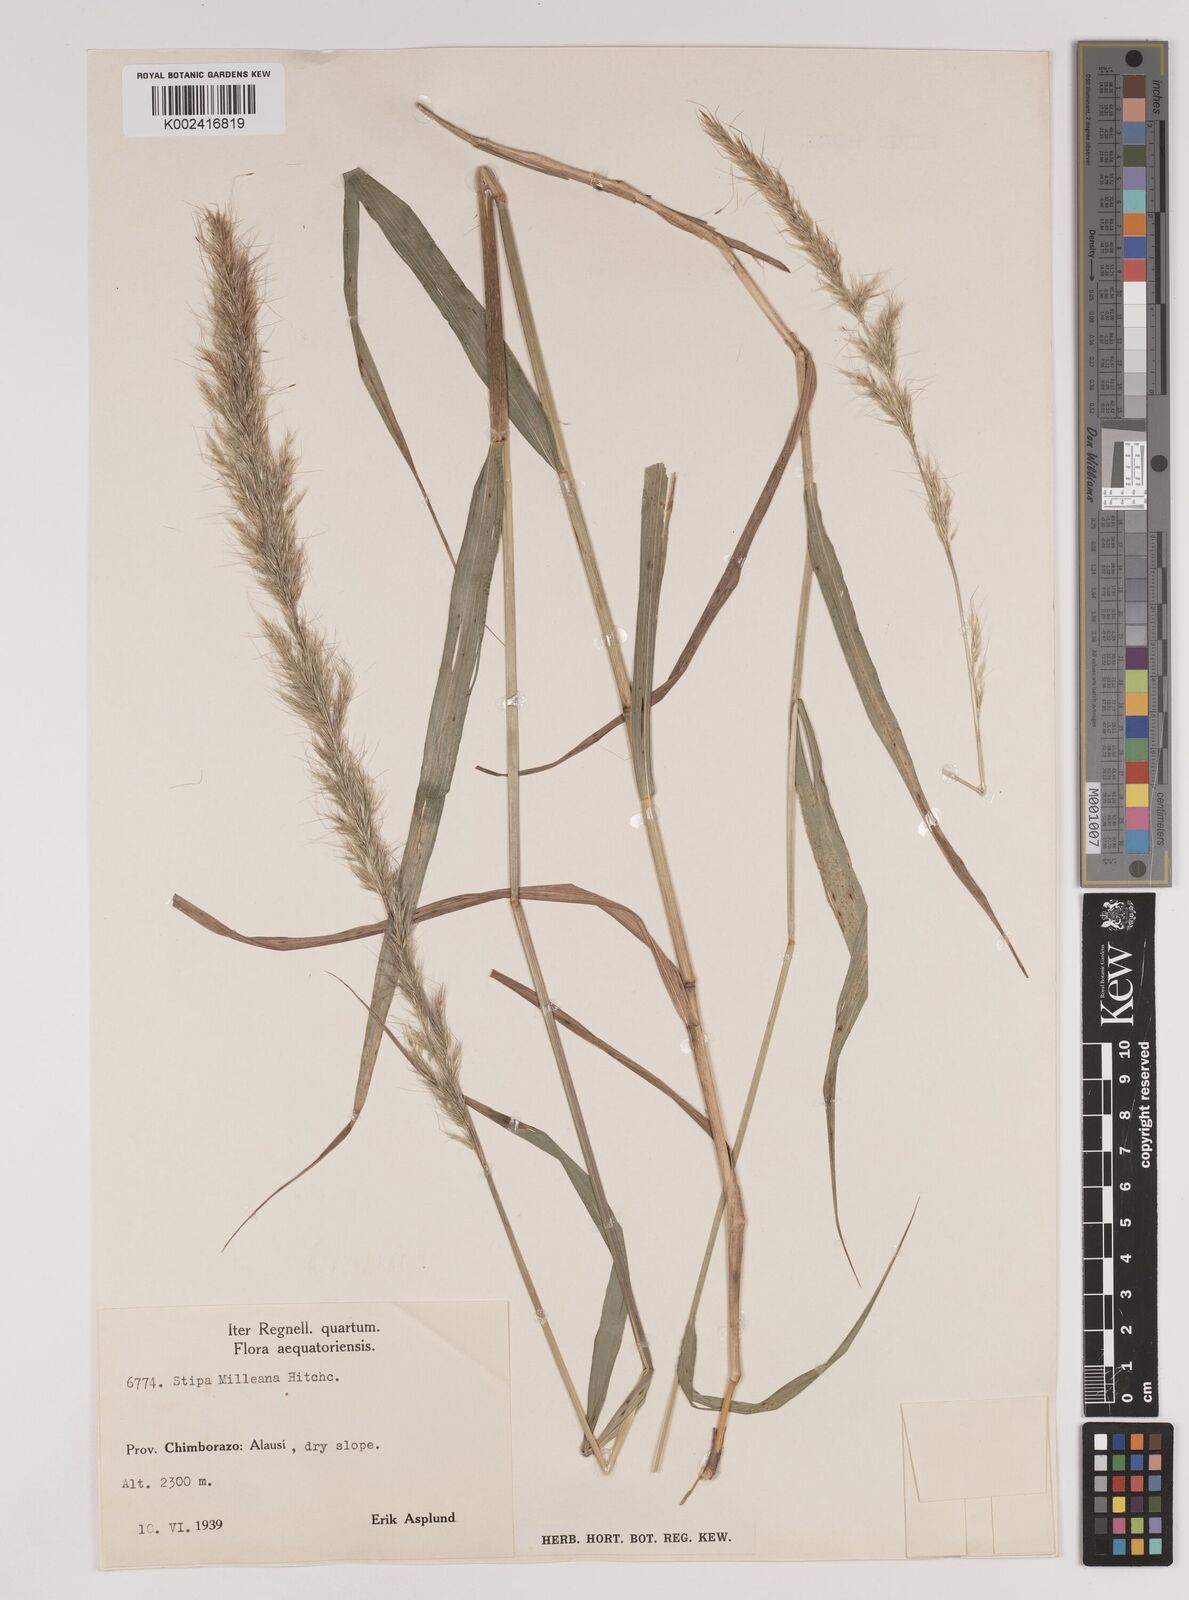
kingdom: Plantae
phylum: Tracheophyta
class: Liliopsida
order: Poales
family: Poaceae
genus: Stipa
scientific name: Stipa milleana
